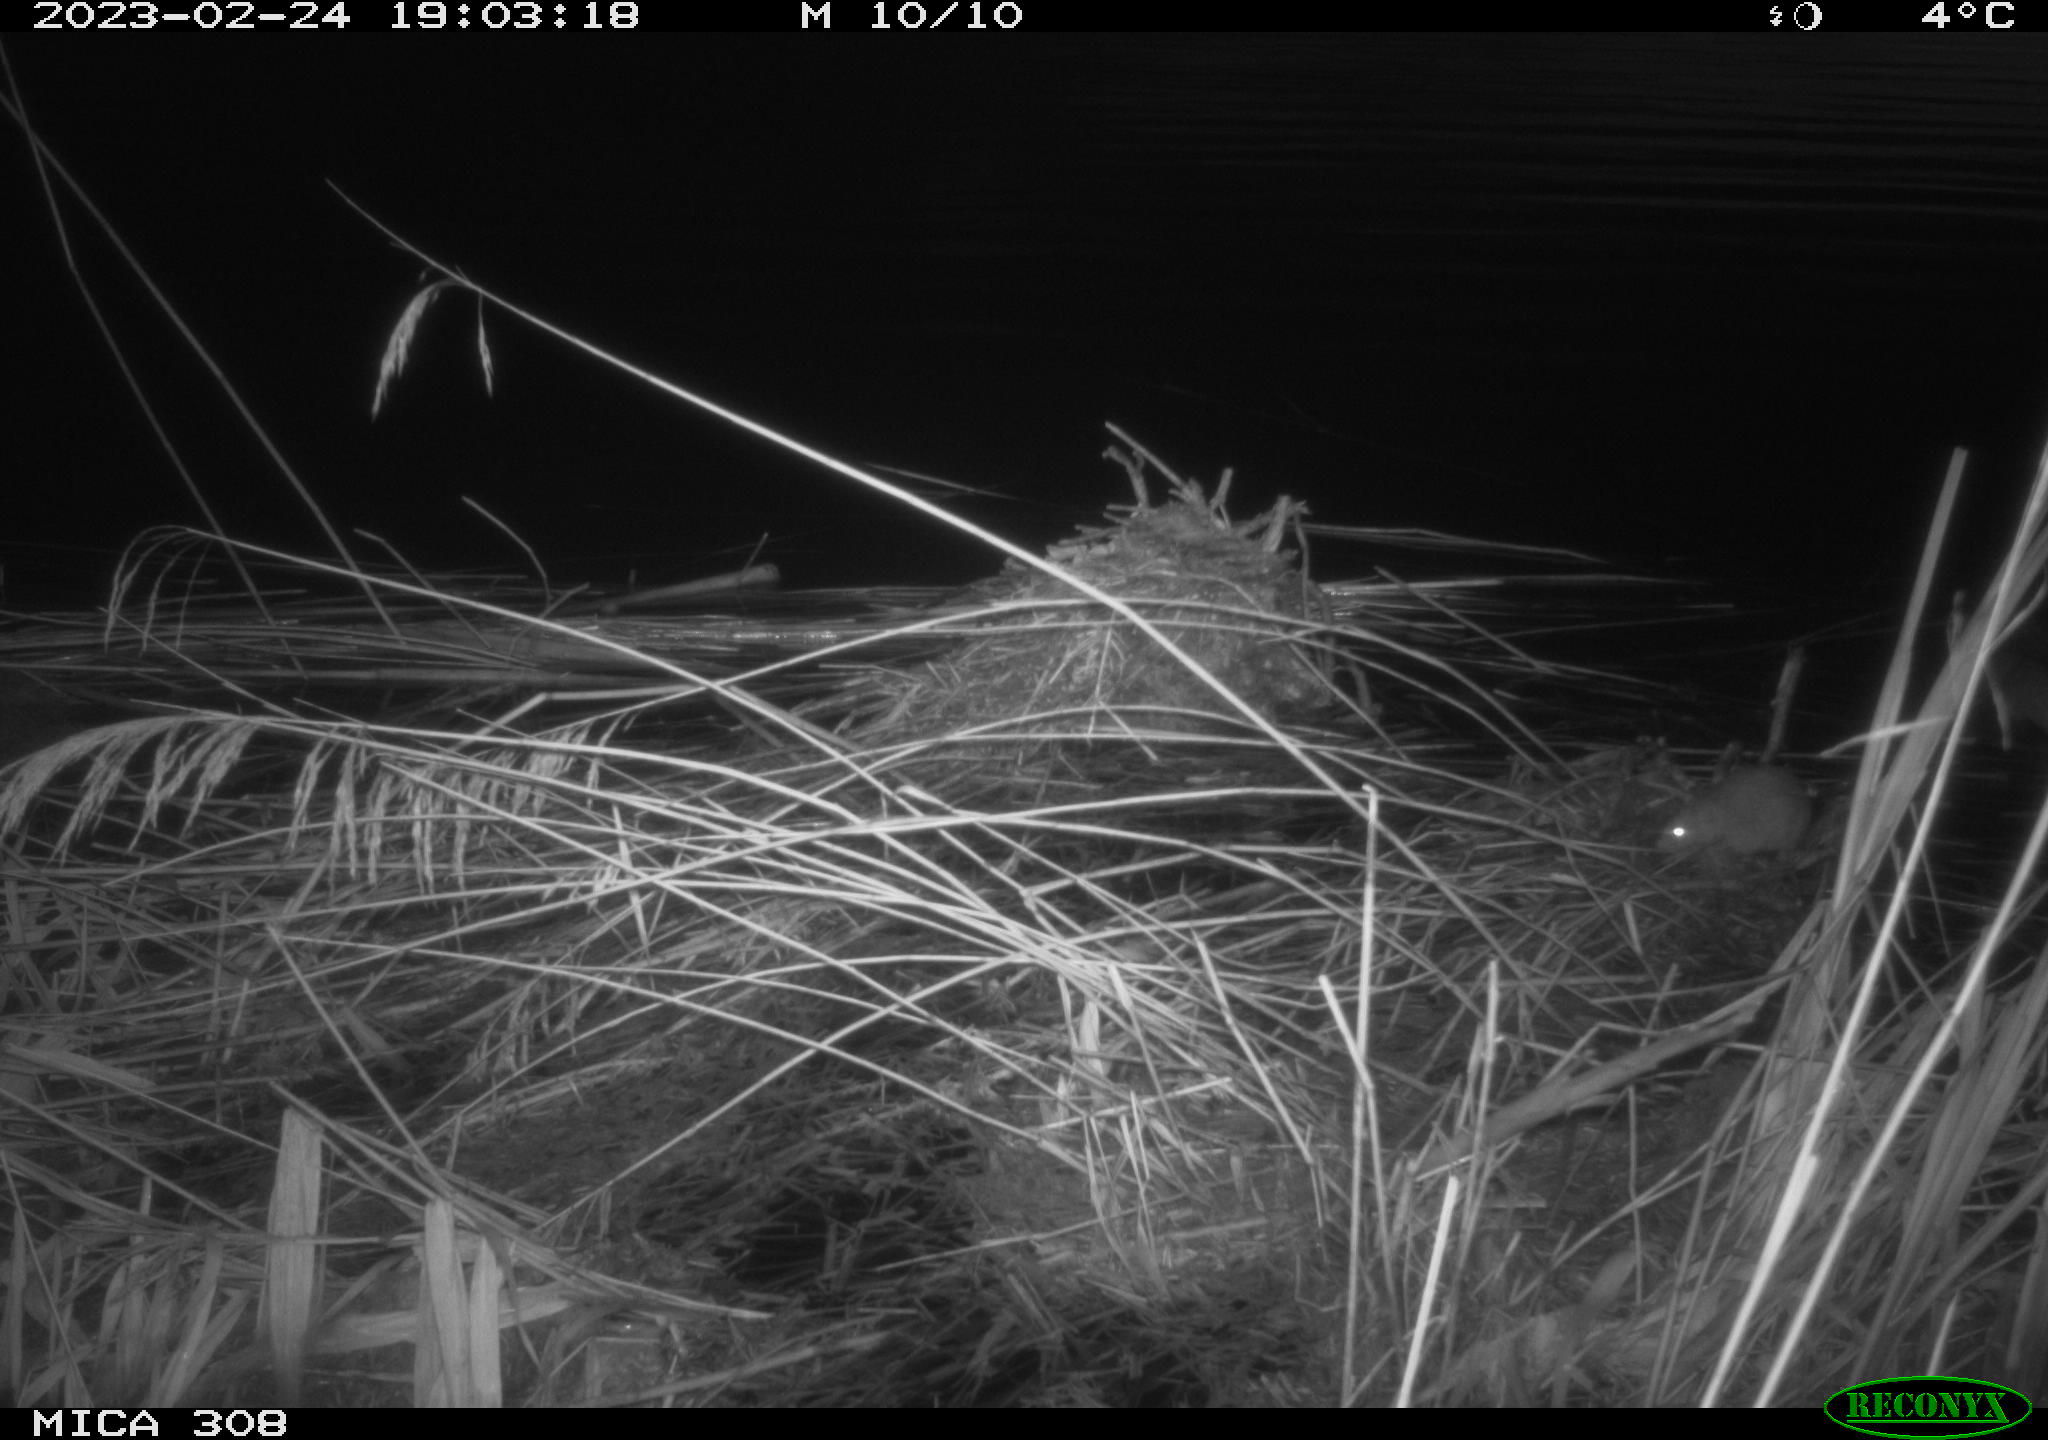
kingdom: Animalia
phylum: Chordata
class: Mammalia
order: Rodentia
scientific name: Rodentia
